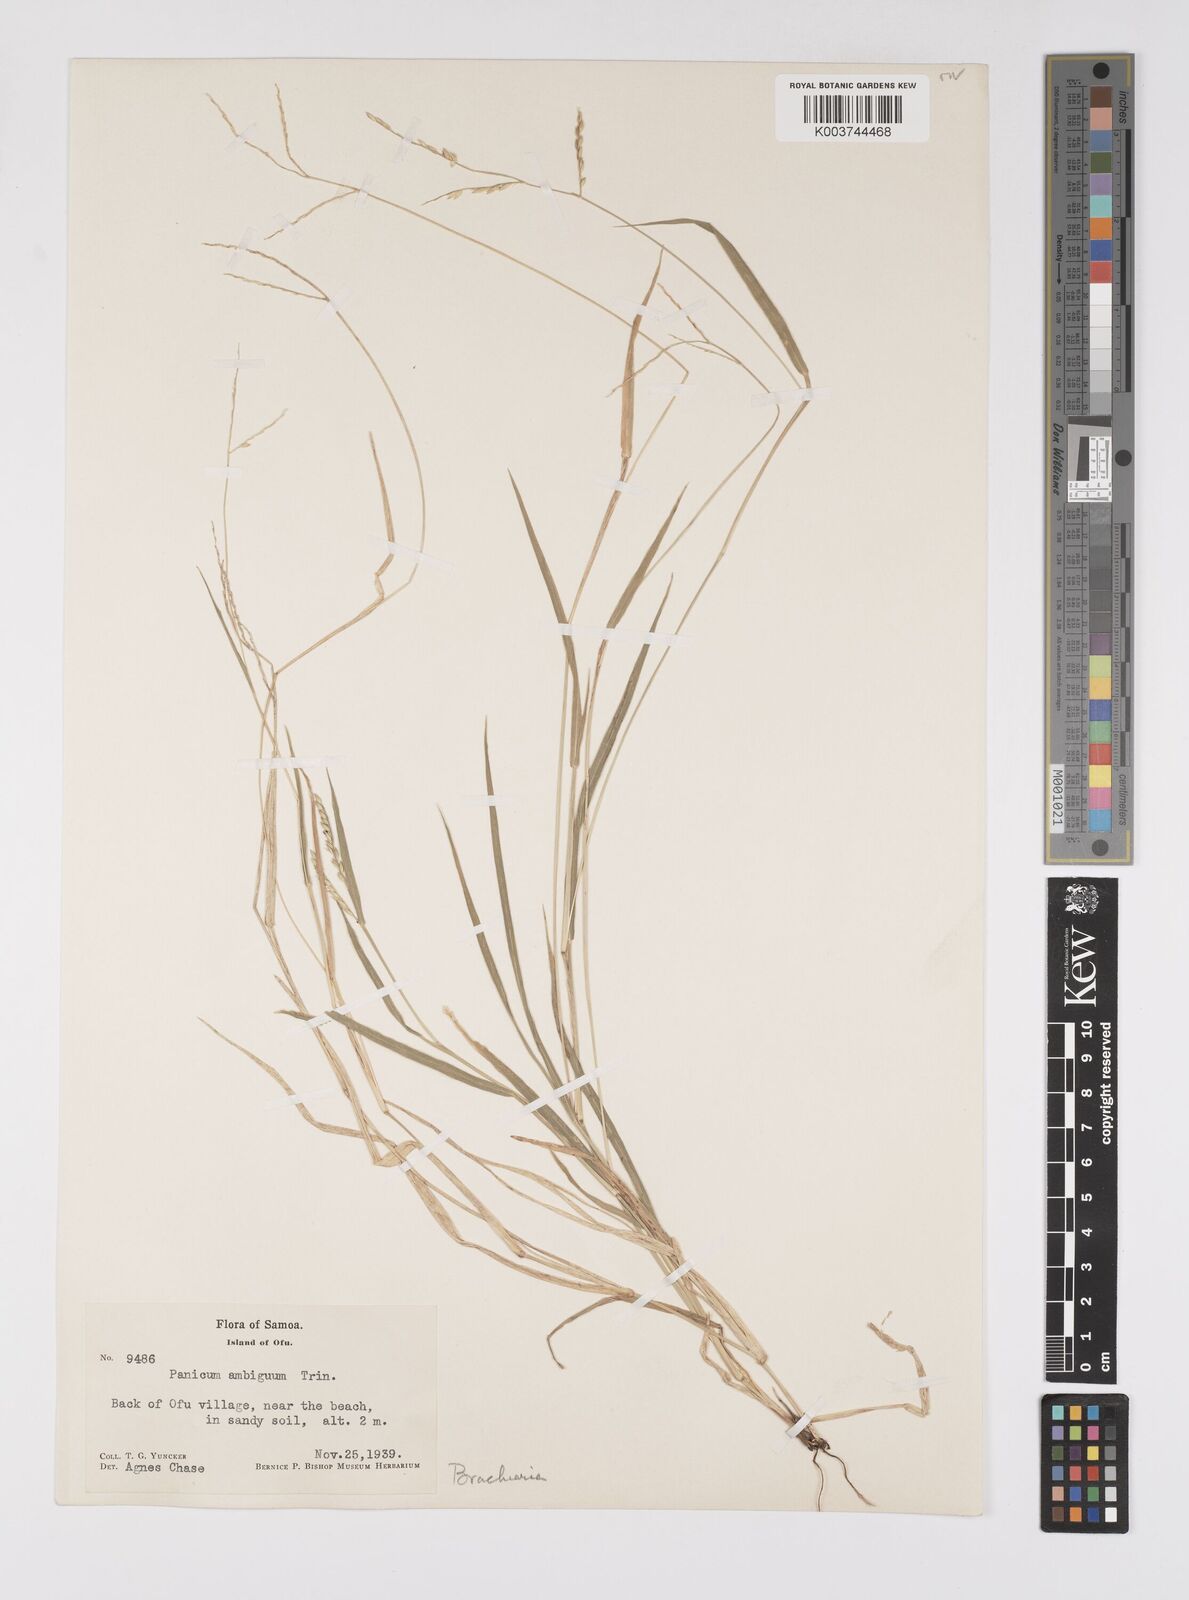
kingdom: Plantae
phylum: Tracheophyta
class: Liliopsida
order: Poales
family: Poaceae
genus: Urochloa
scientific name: Urochloa glumaris
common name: Thurston grass
